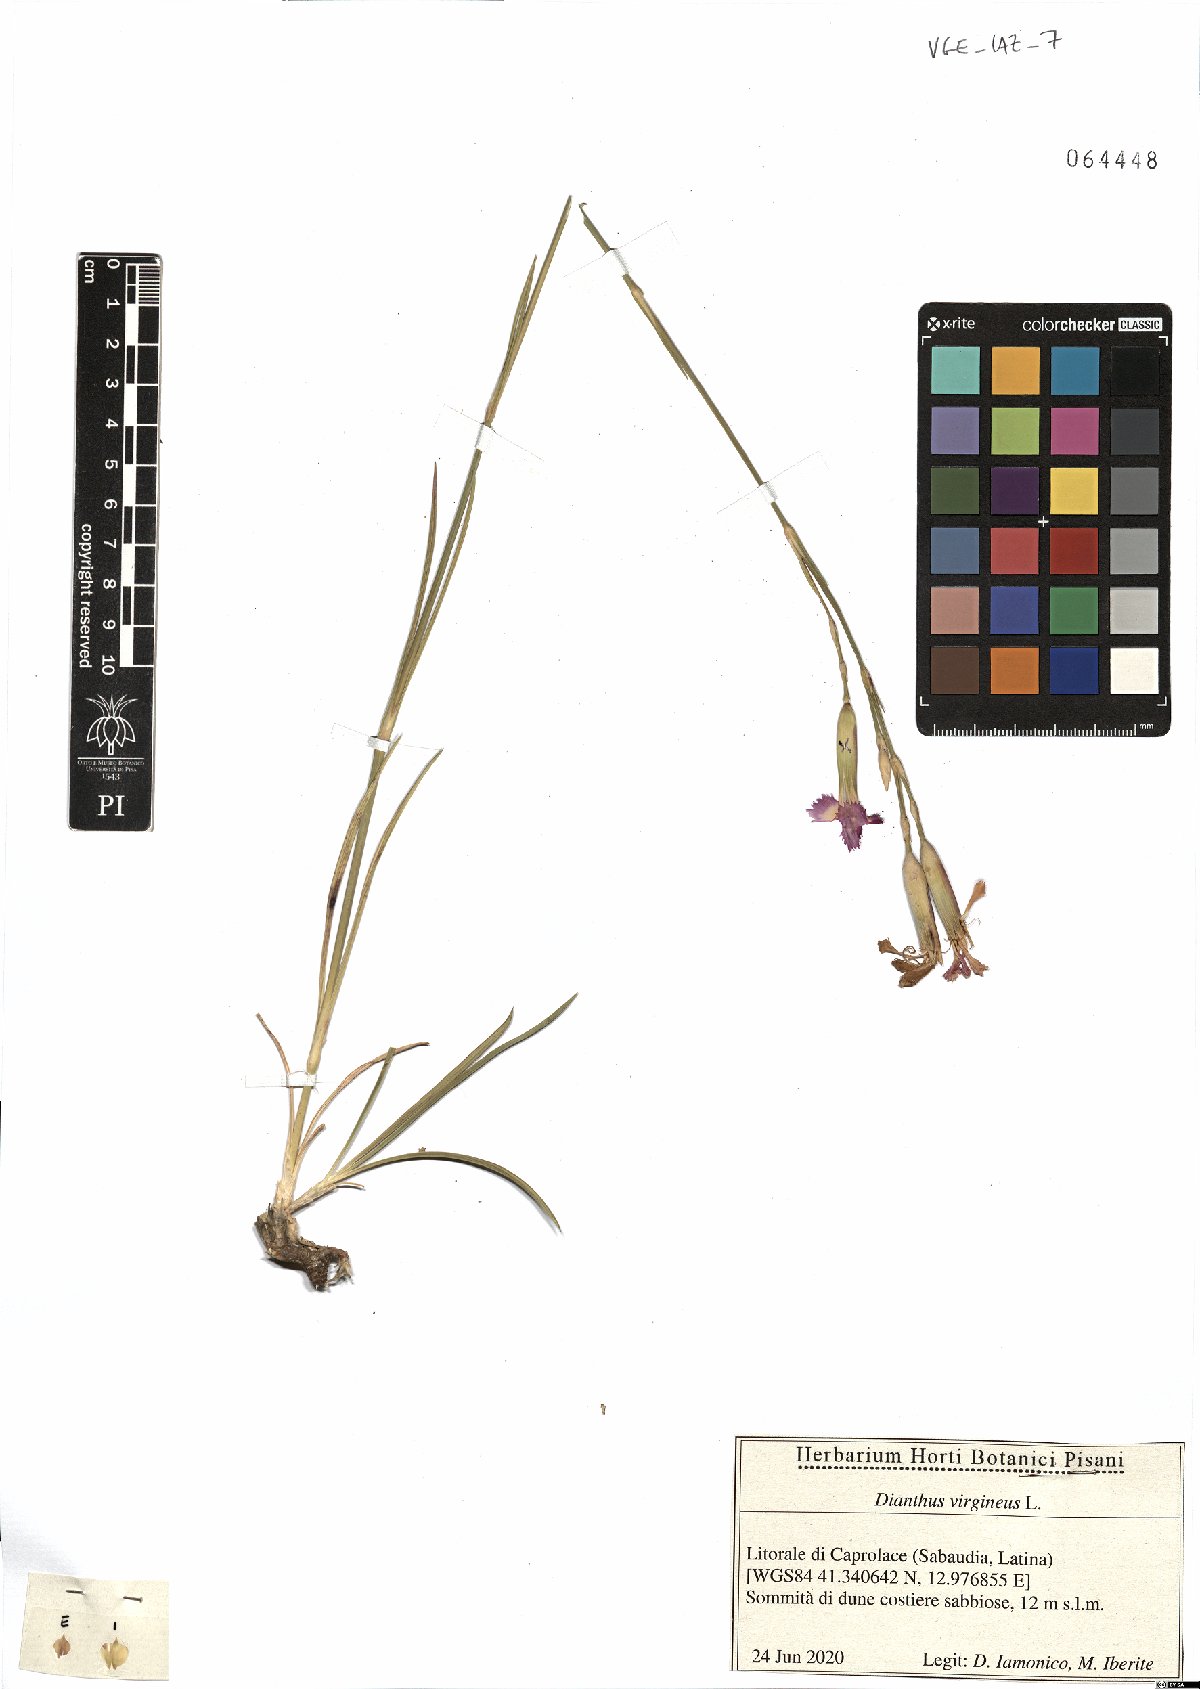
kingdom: Plantae
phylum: Tracheophyta
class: Magnoliopsida
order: Caryophyllales
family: Caryophyllaceae
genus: Dianthus
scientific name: Dianthus virgineus
